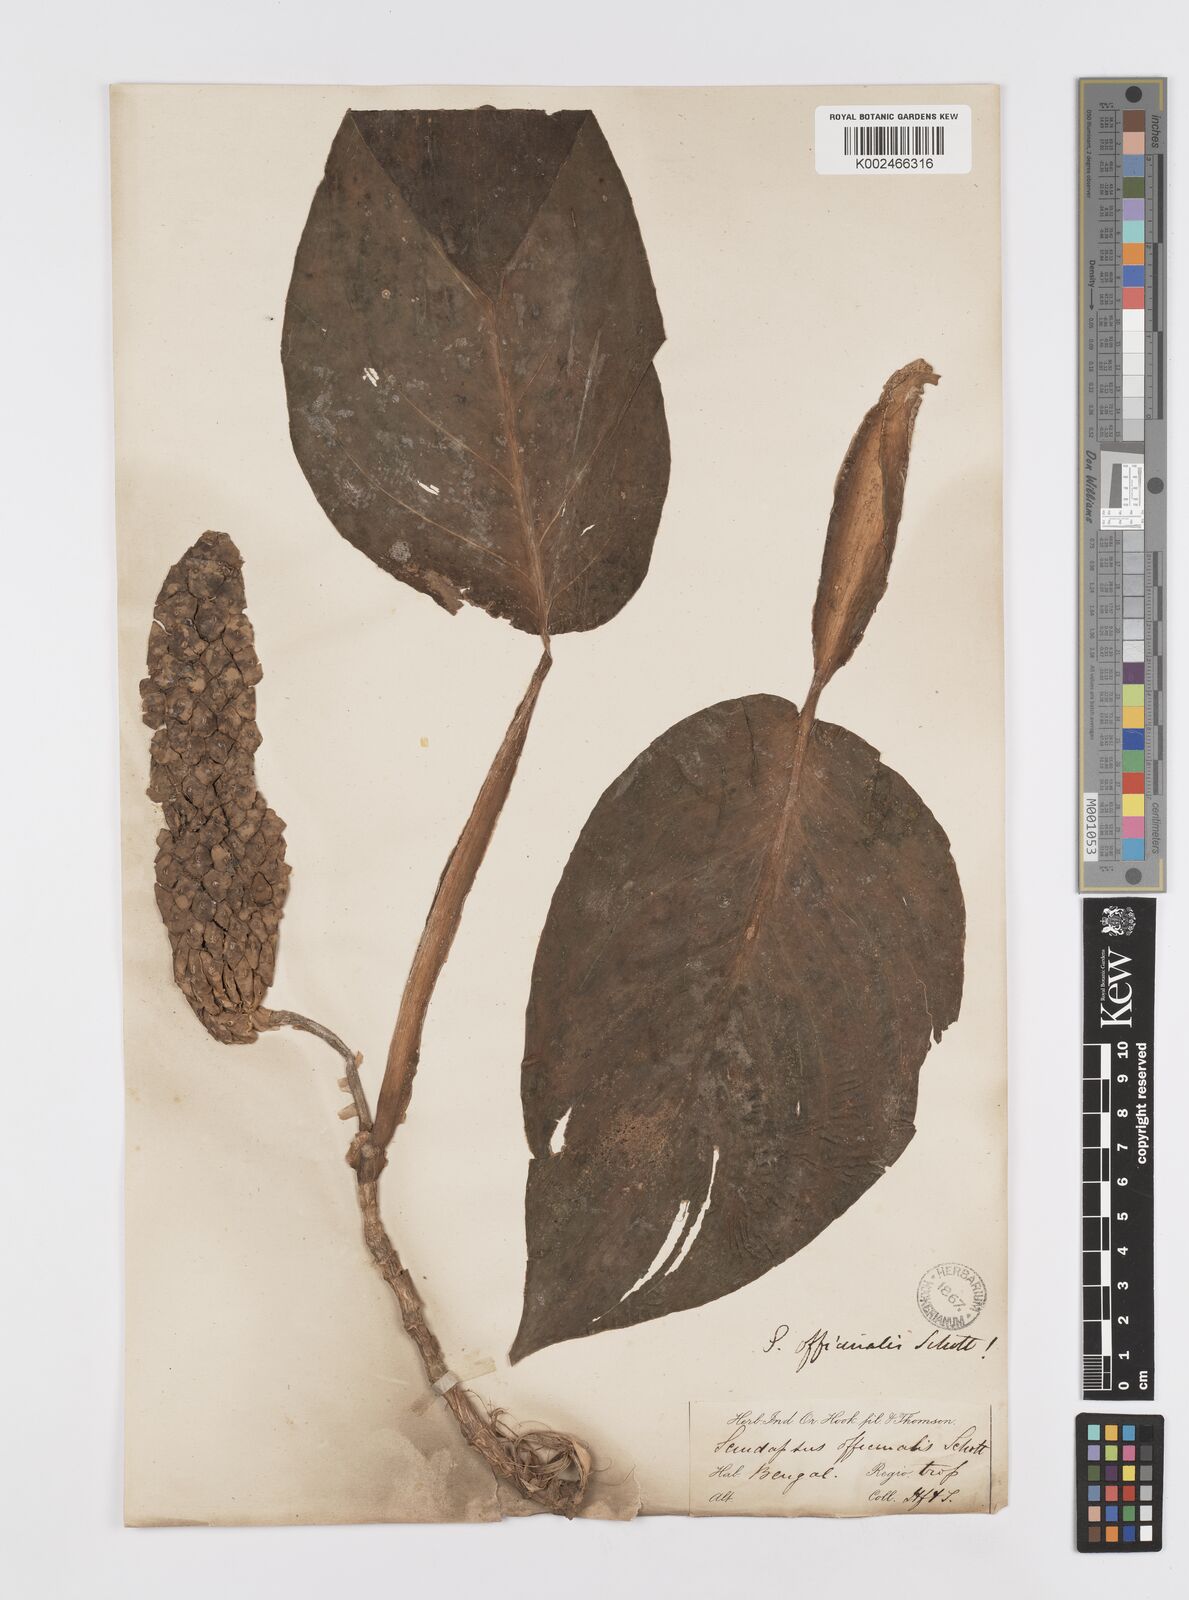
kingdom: Plantae
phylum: Tracheophyta
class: Liliopsida
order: Alismatales
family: Araceae
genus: Scindapsus
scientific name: Scindapsus officinalis
